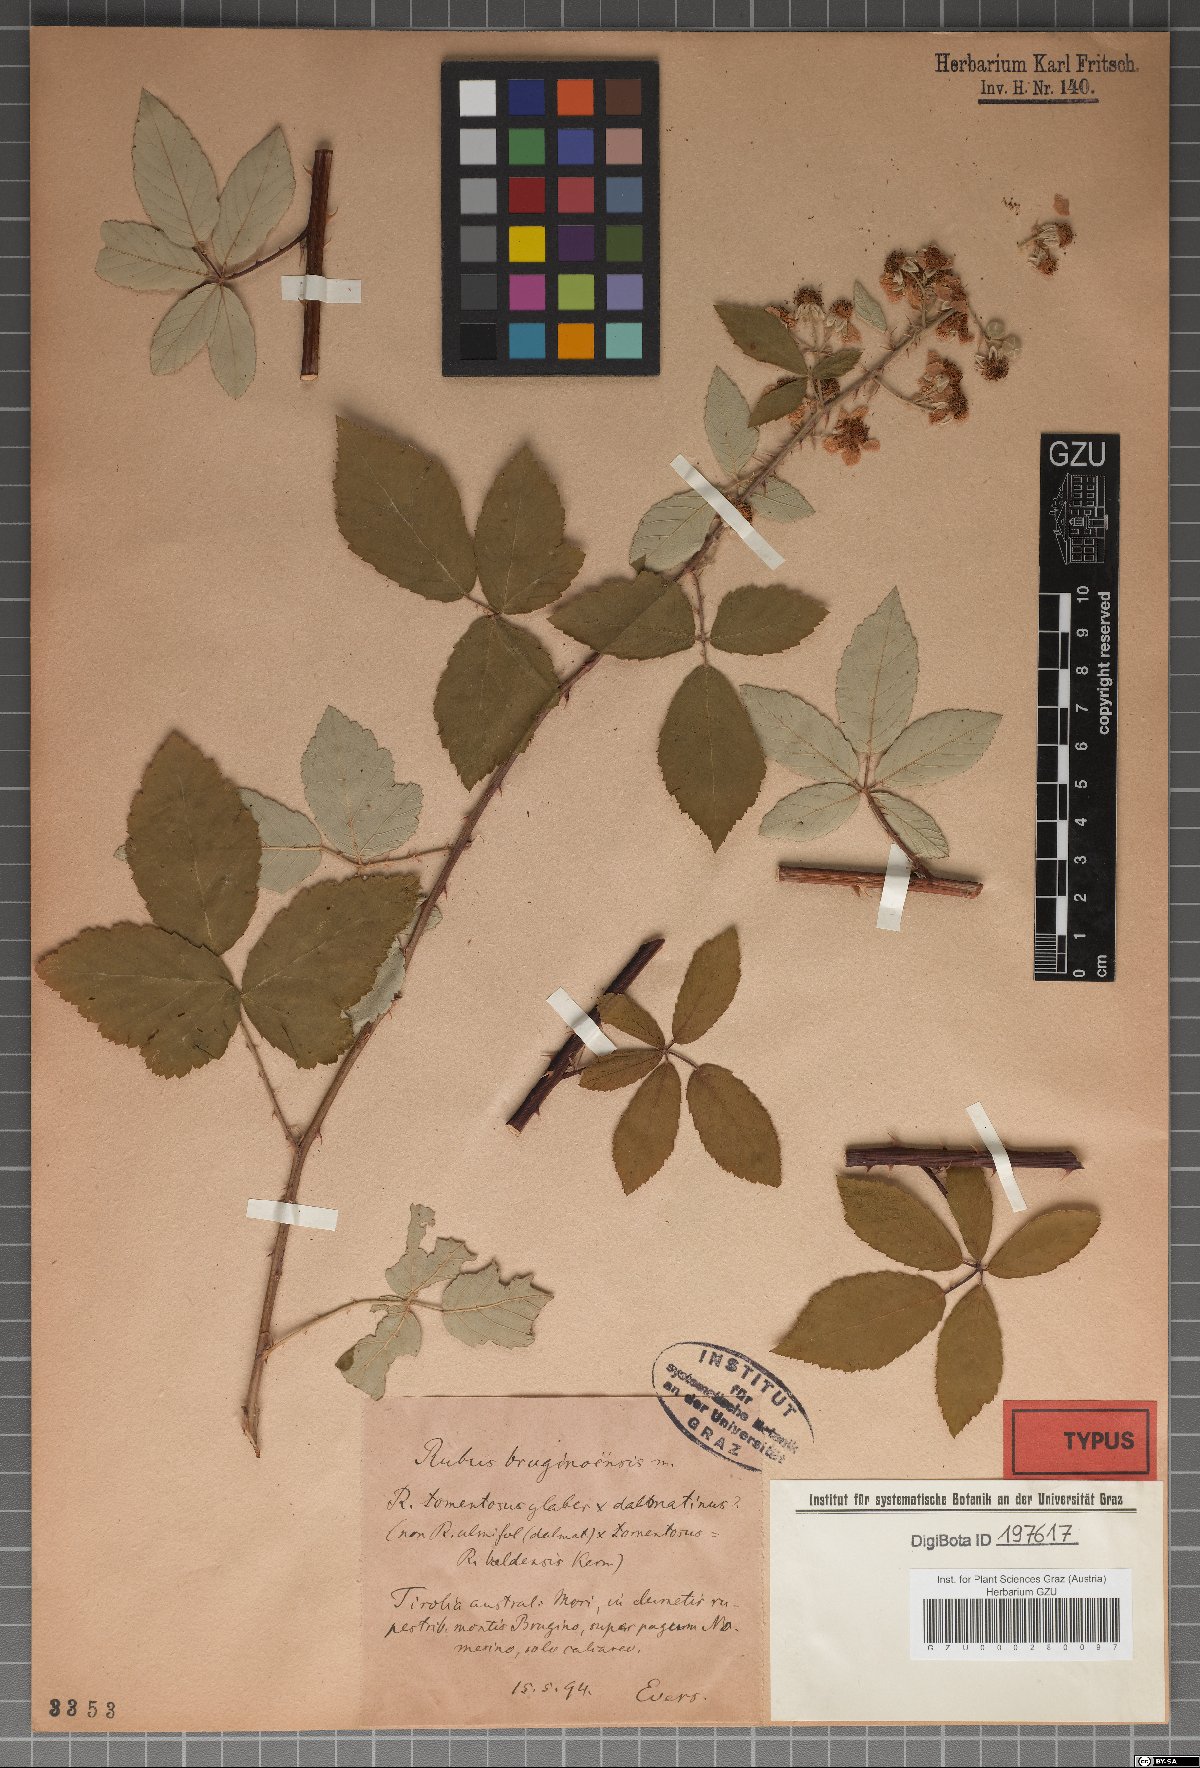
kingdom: Plantae
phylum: Tracheophyta
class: Magnoliopsida
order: Rosales
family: Rosaceae
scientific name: Rosaceae
